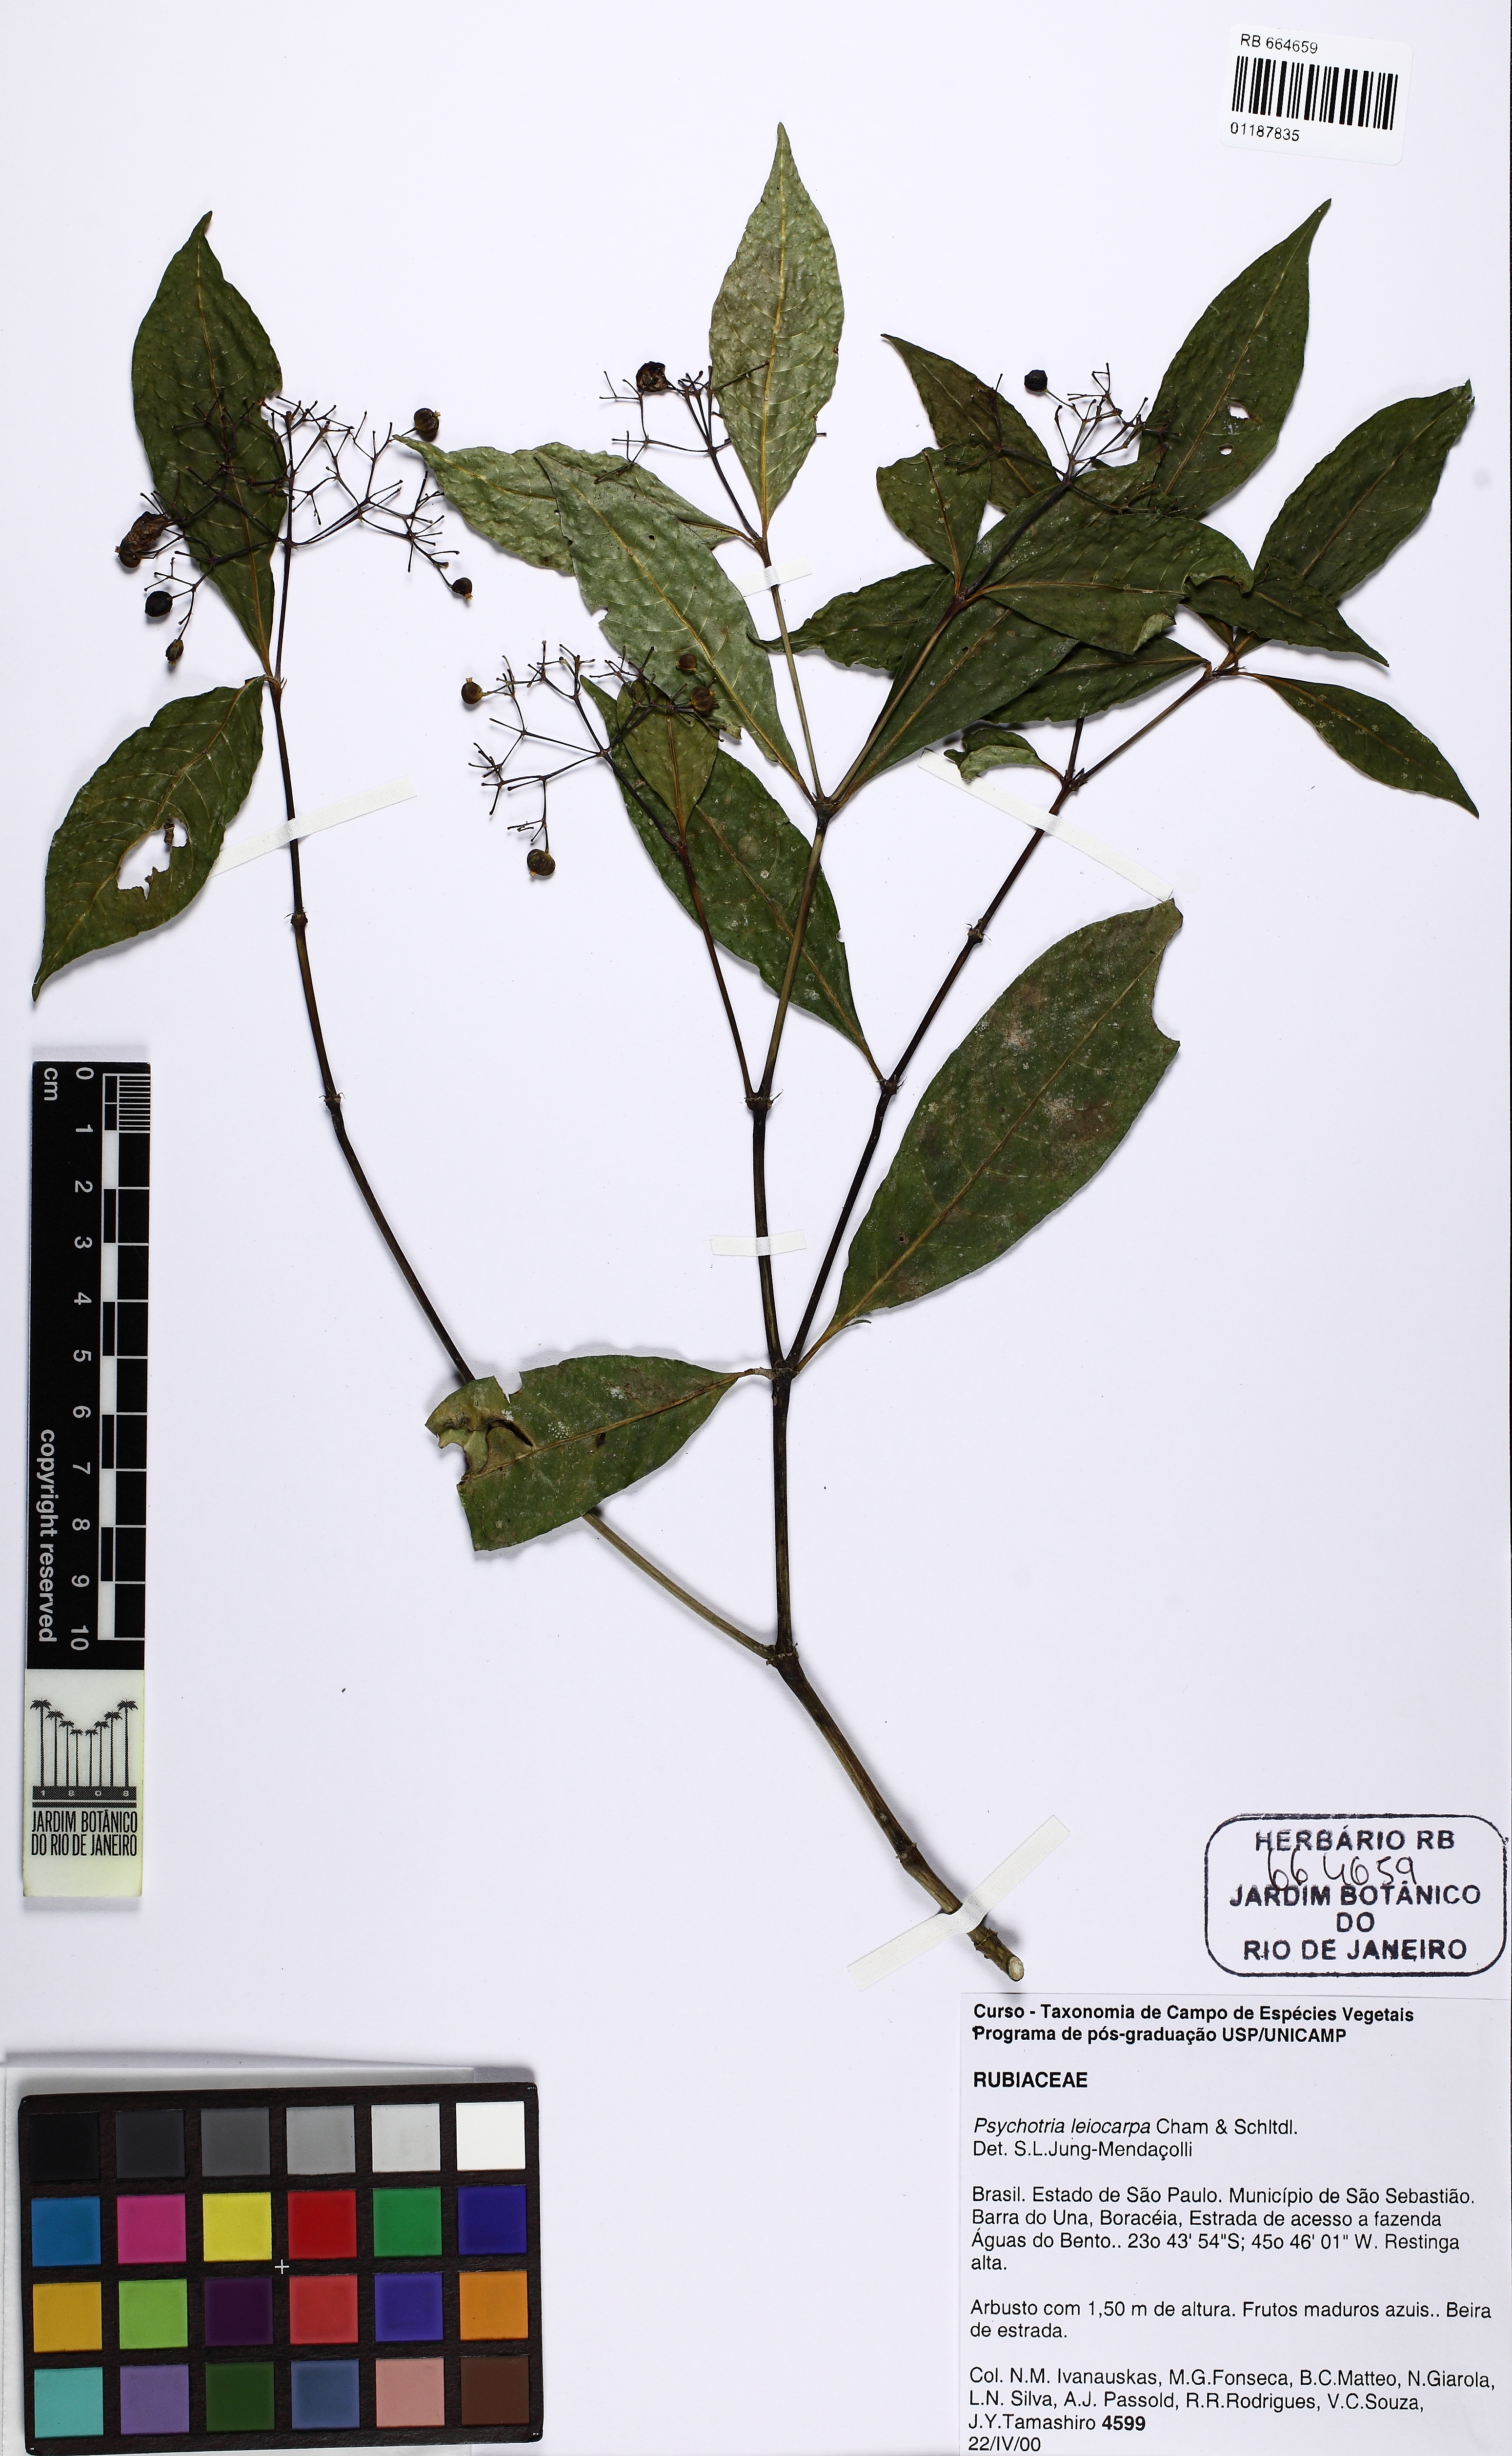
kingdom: Plantae
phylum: Tracheophyta
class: Magnoliopsida
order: Gentianales
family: Rubiaceae
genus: Psychotria
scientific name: Psychotria leiocarpa
